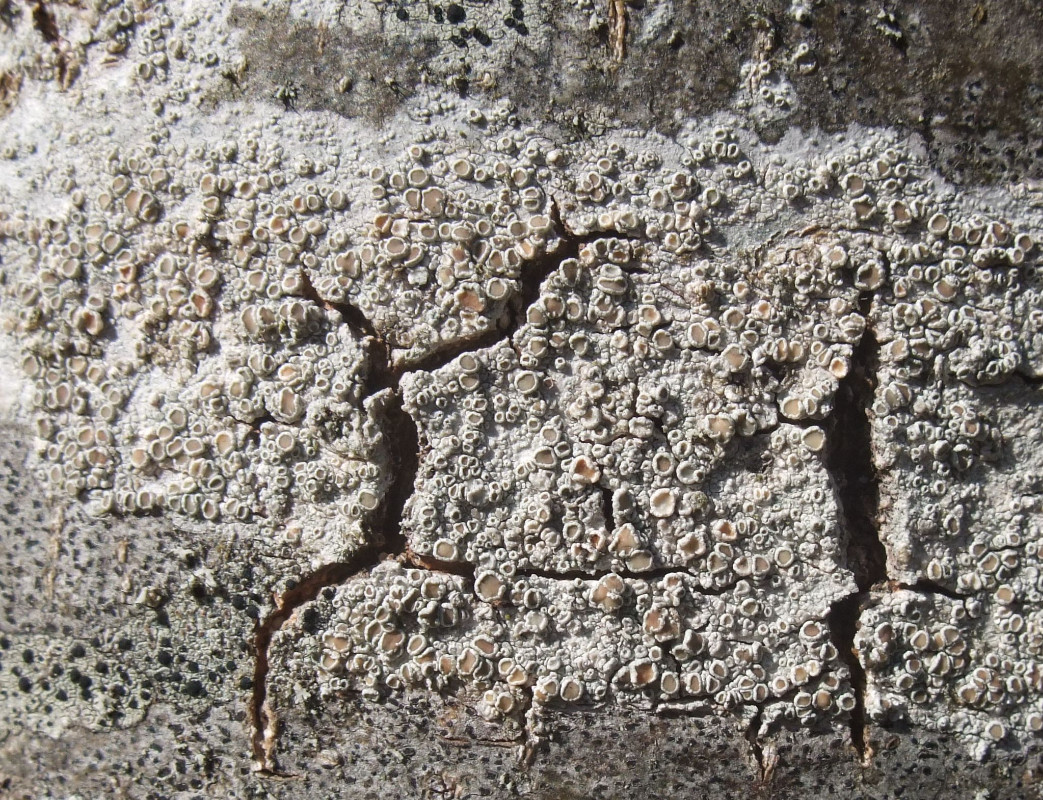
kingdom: Fungi
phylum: Ascomycota
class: Lecanoromycetes
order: Lecanorales
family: Lecanoraceae
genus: Lecanora
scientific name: Lecanora chlarotera
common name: brun kantskivelav
